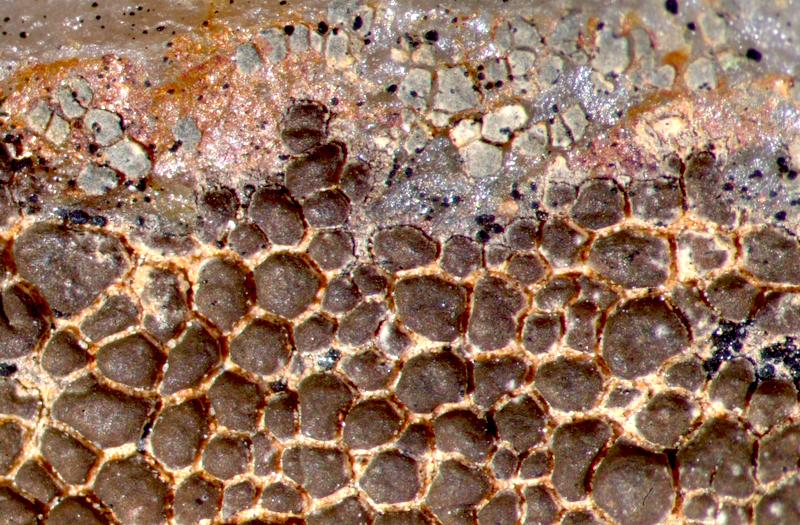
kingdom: Fungi
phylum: Ascomycota
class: Lecanoromycetes
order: Ostropales
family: Graphidaceae
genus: Diploschistes
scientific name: Diploschistes aeneus
